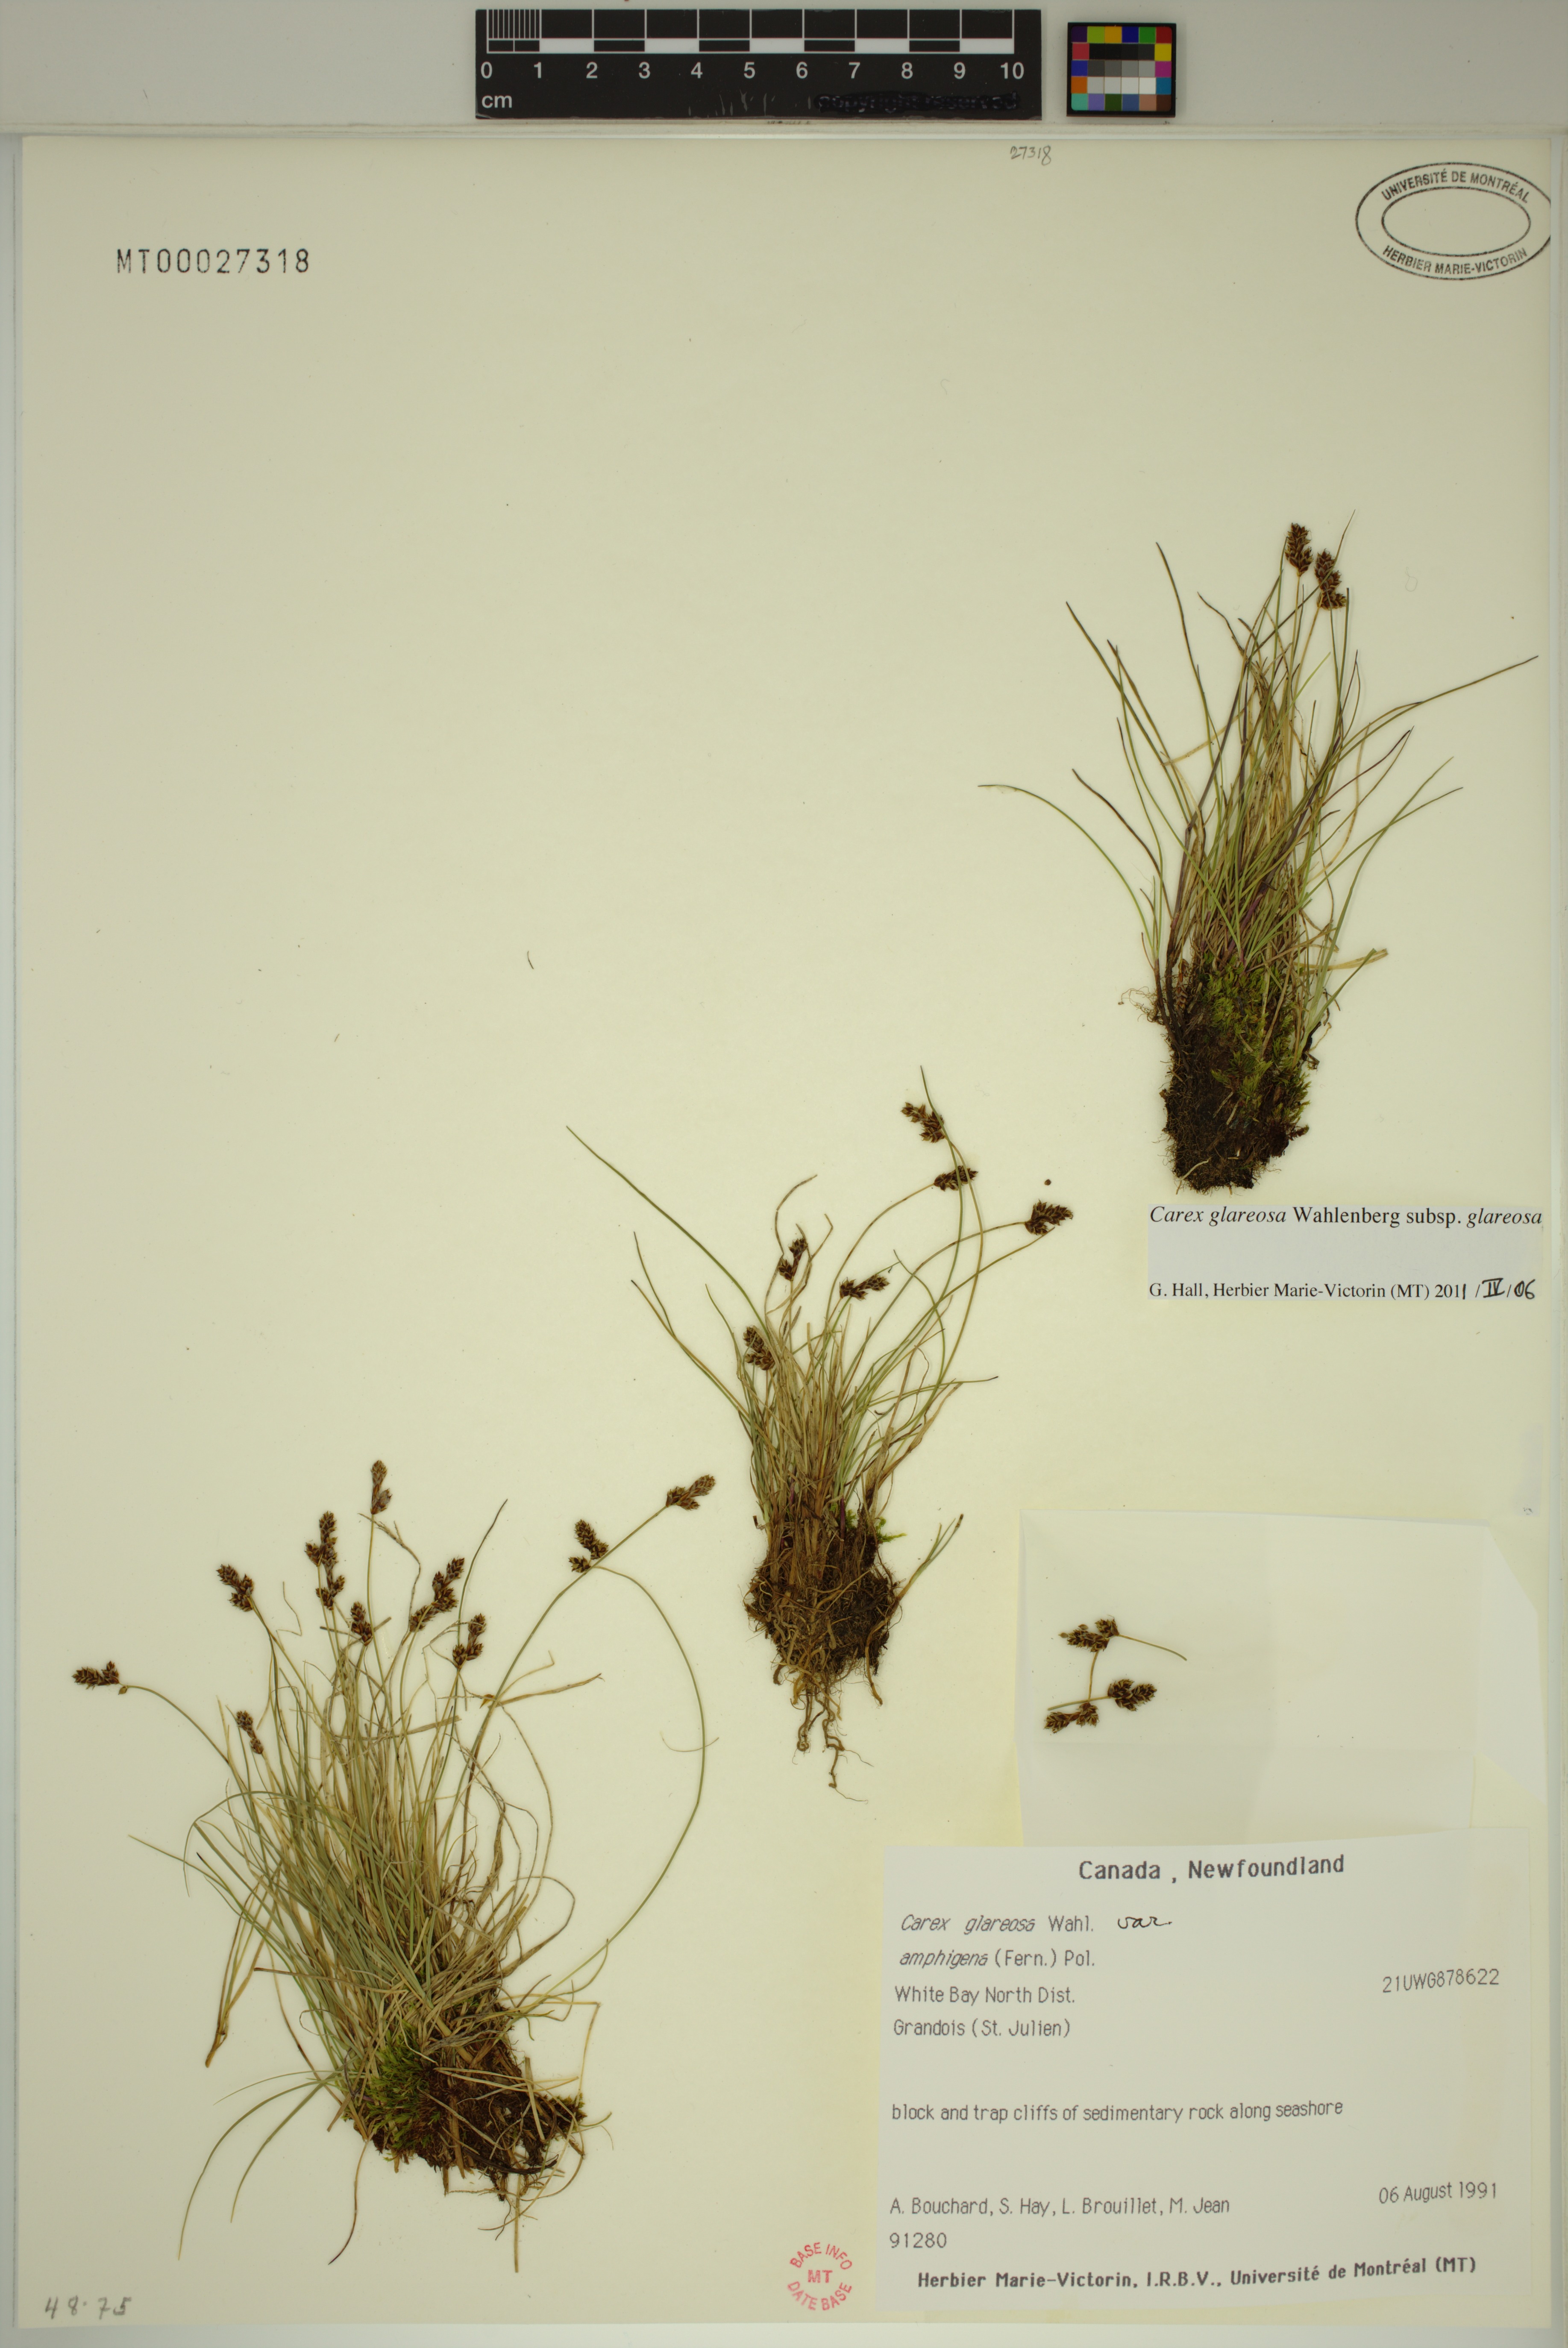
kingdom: Plantae
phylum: Tracheophyta
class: Liliopsida
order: Poales
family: Cyperaceae
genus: Carex
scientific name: Carex glareosa
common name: Clustered sedge
